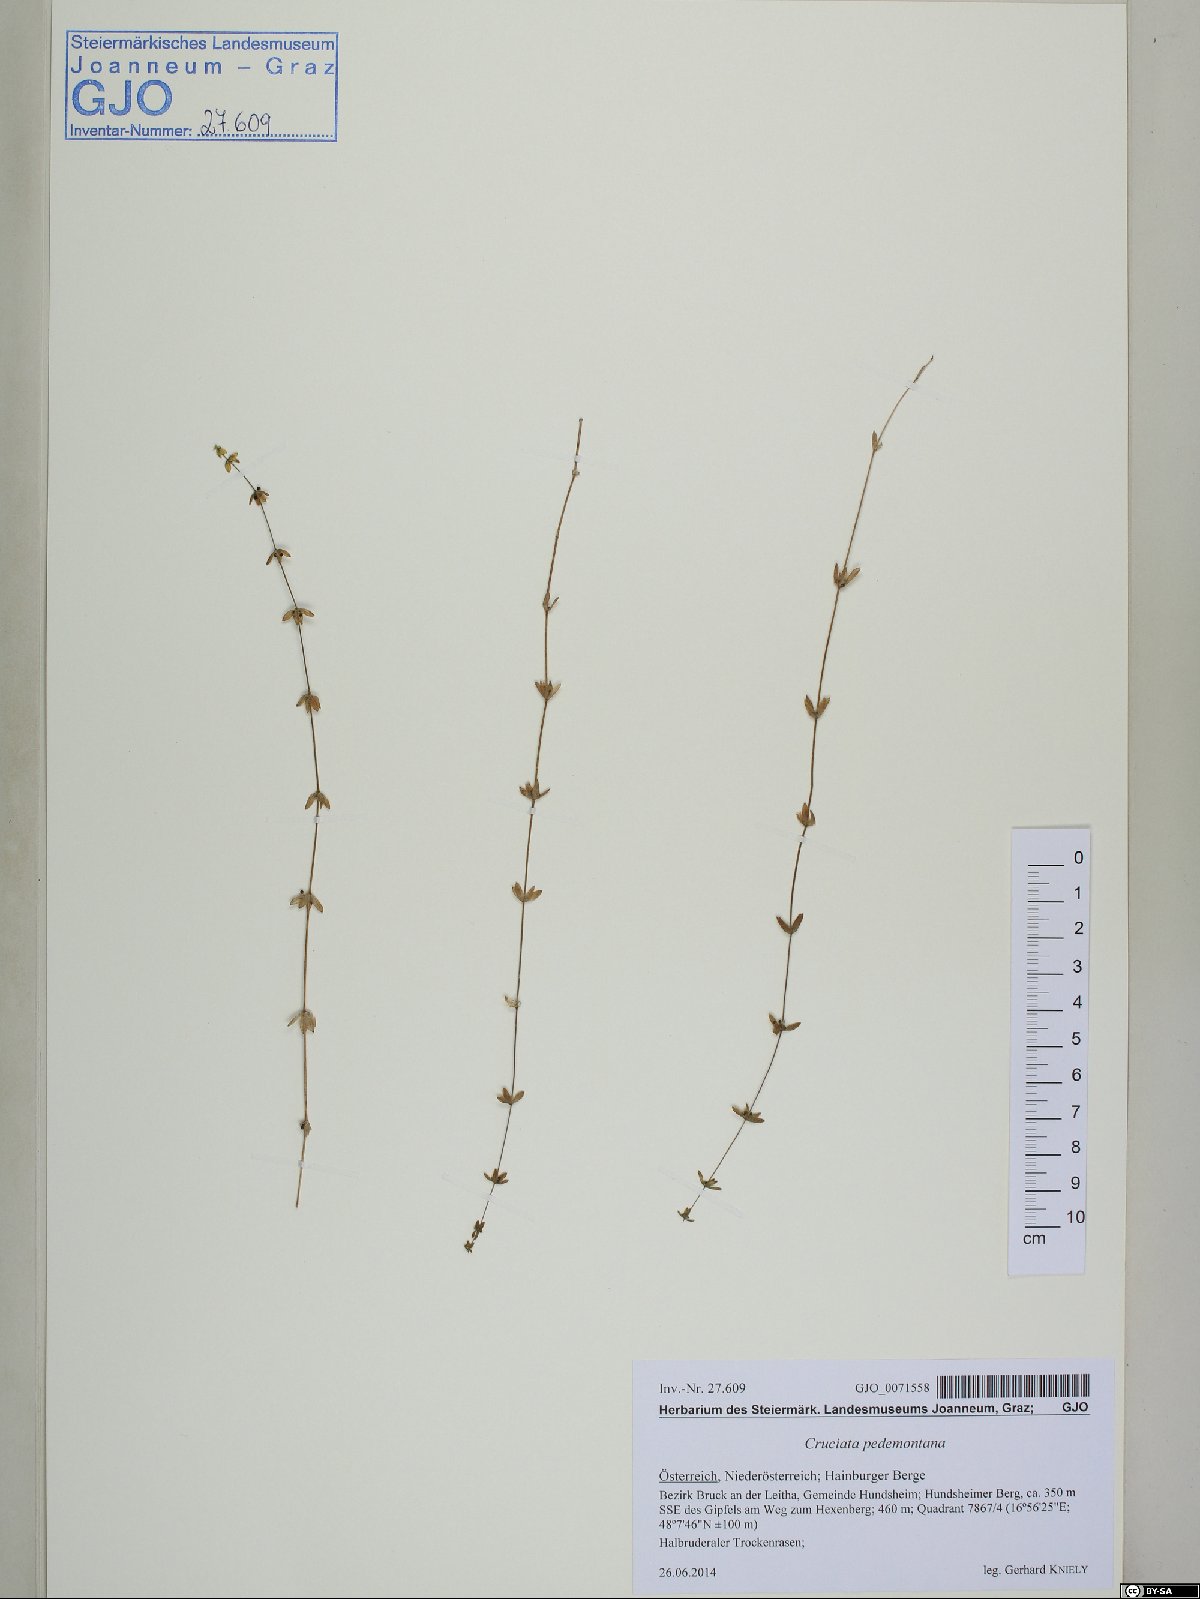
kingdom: Plantae
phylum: Tracheophyta
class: Magnoliopsida
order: Gentianales
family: Rubiaceae
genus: Cruciata
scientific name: Cruciata pedemontana
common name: Piedmont bedstraw
